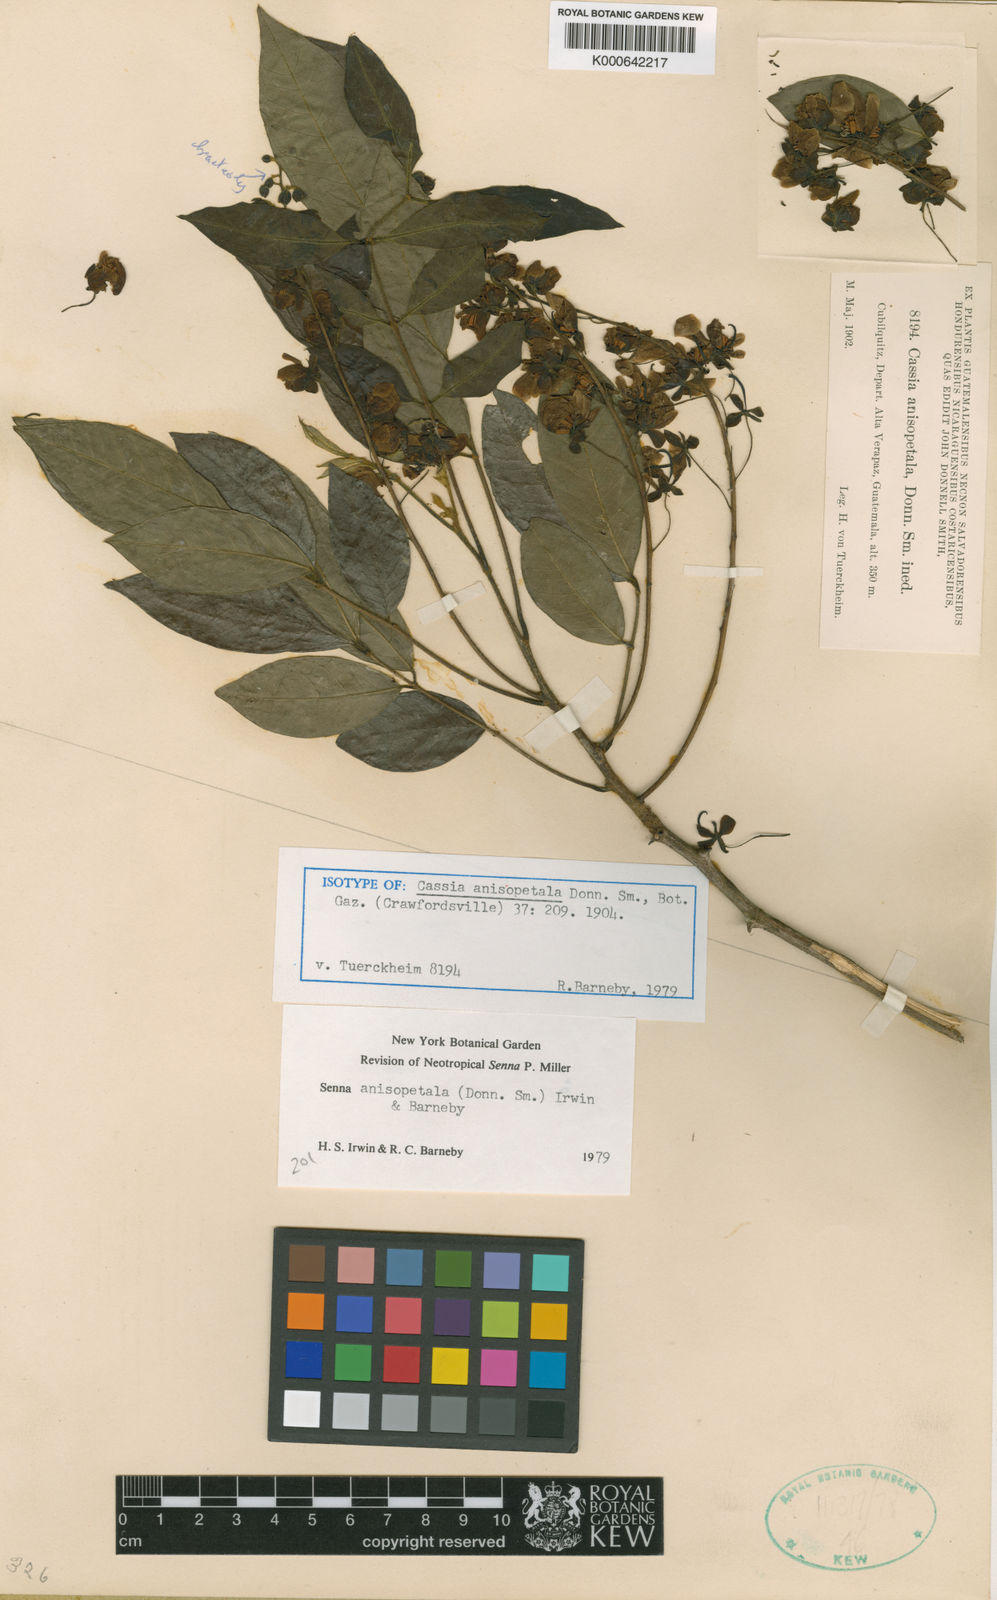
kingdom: Plantae
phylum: Tracheophyta
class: Magnoliopsida
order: Fabales
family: Fabaceae
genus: Senna
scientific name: Senna peralteana
